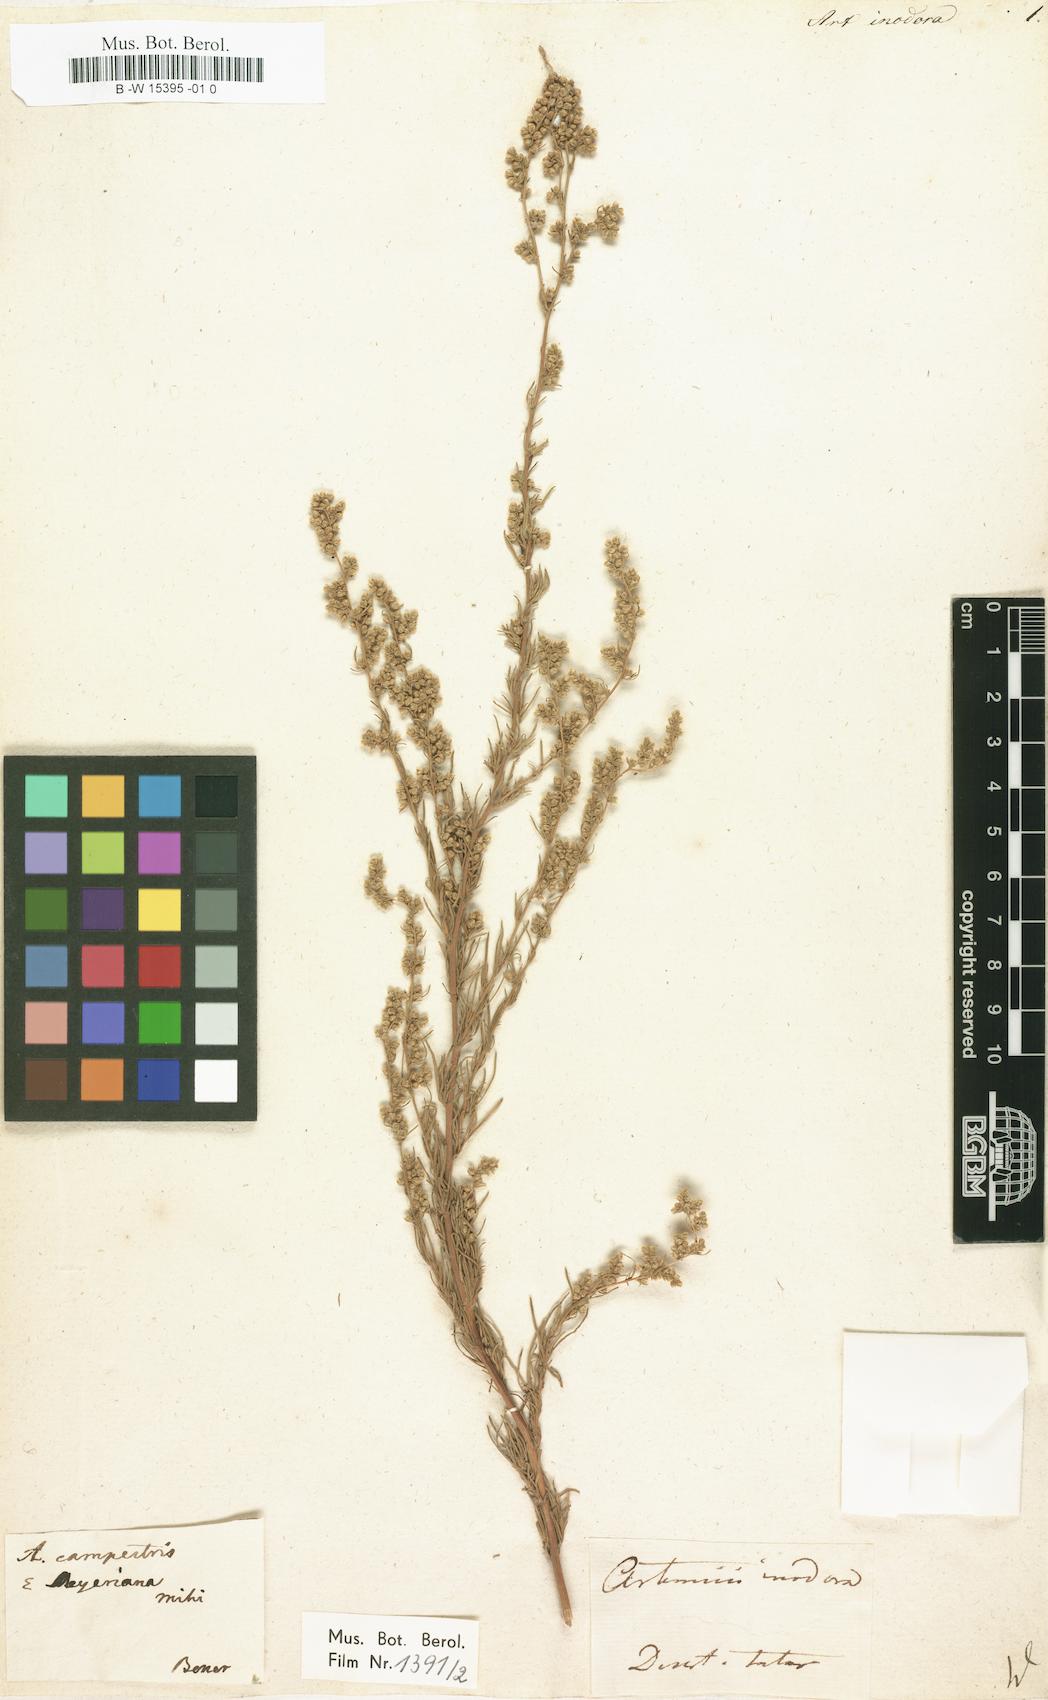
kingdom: Plantae
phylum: Tracheophyta
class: Magnoliopsida
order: Asterales
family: Asteraceae
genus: Artemisia
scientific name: Artemisia dracunculus
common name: Tarragon
